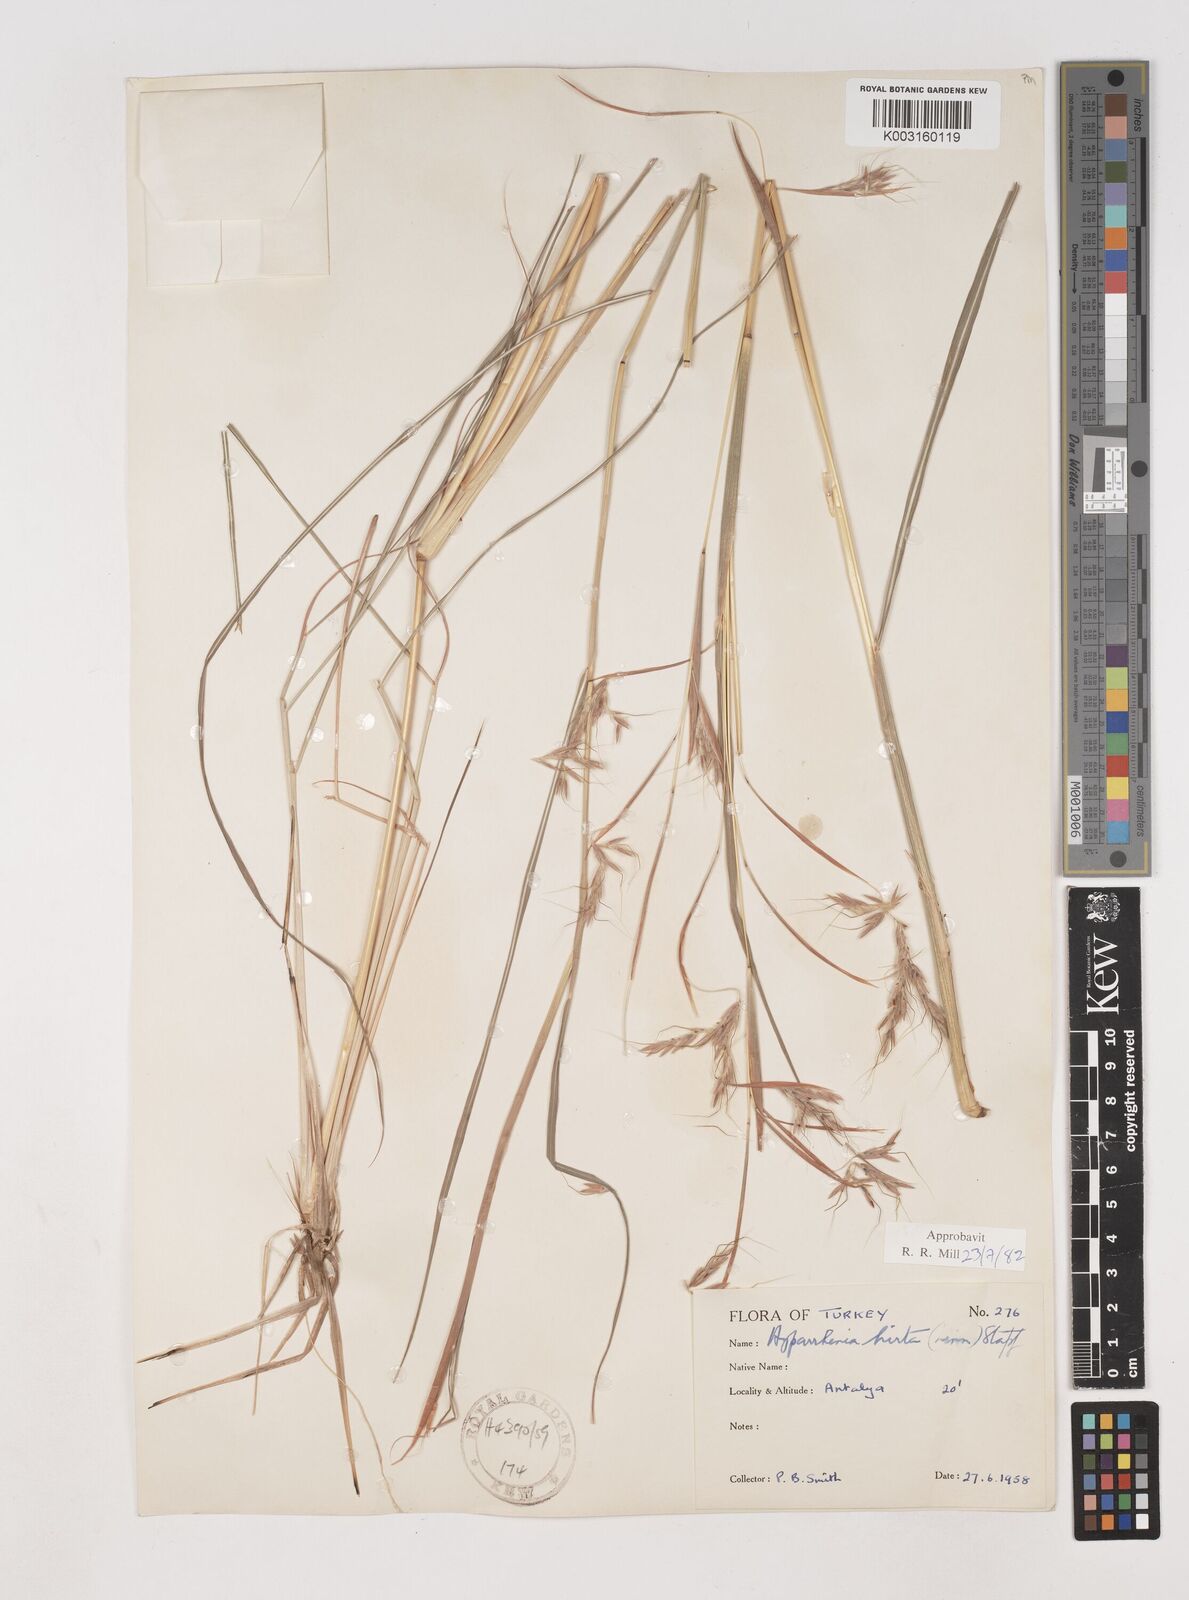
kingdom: Plantae
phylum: Tracheophyta
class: Liliopsida
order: Poales
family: Poaceae
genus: Hyparrhenia
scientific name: Hyparrhenia hirta
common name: Thatching grass
